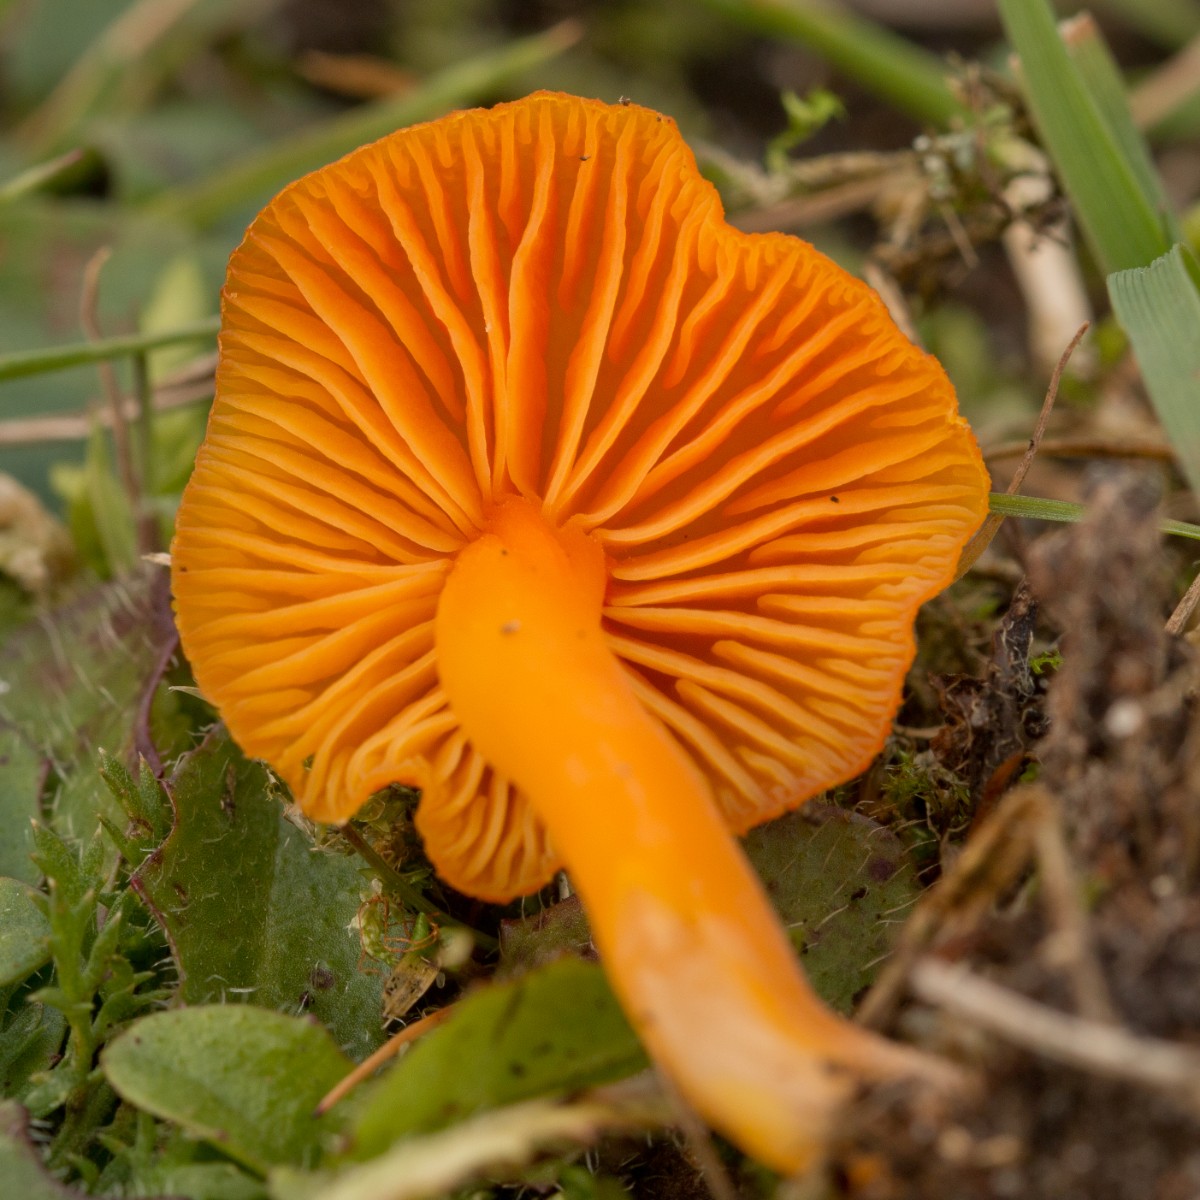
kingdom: Fungi
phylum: Basidiomycota
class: Agaricomycetes
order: Agaricales
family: Hygrophoraceae
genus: Hygrocybe
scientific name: Hygrocybe miniata
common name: mønje-vokshat
